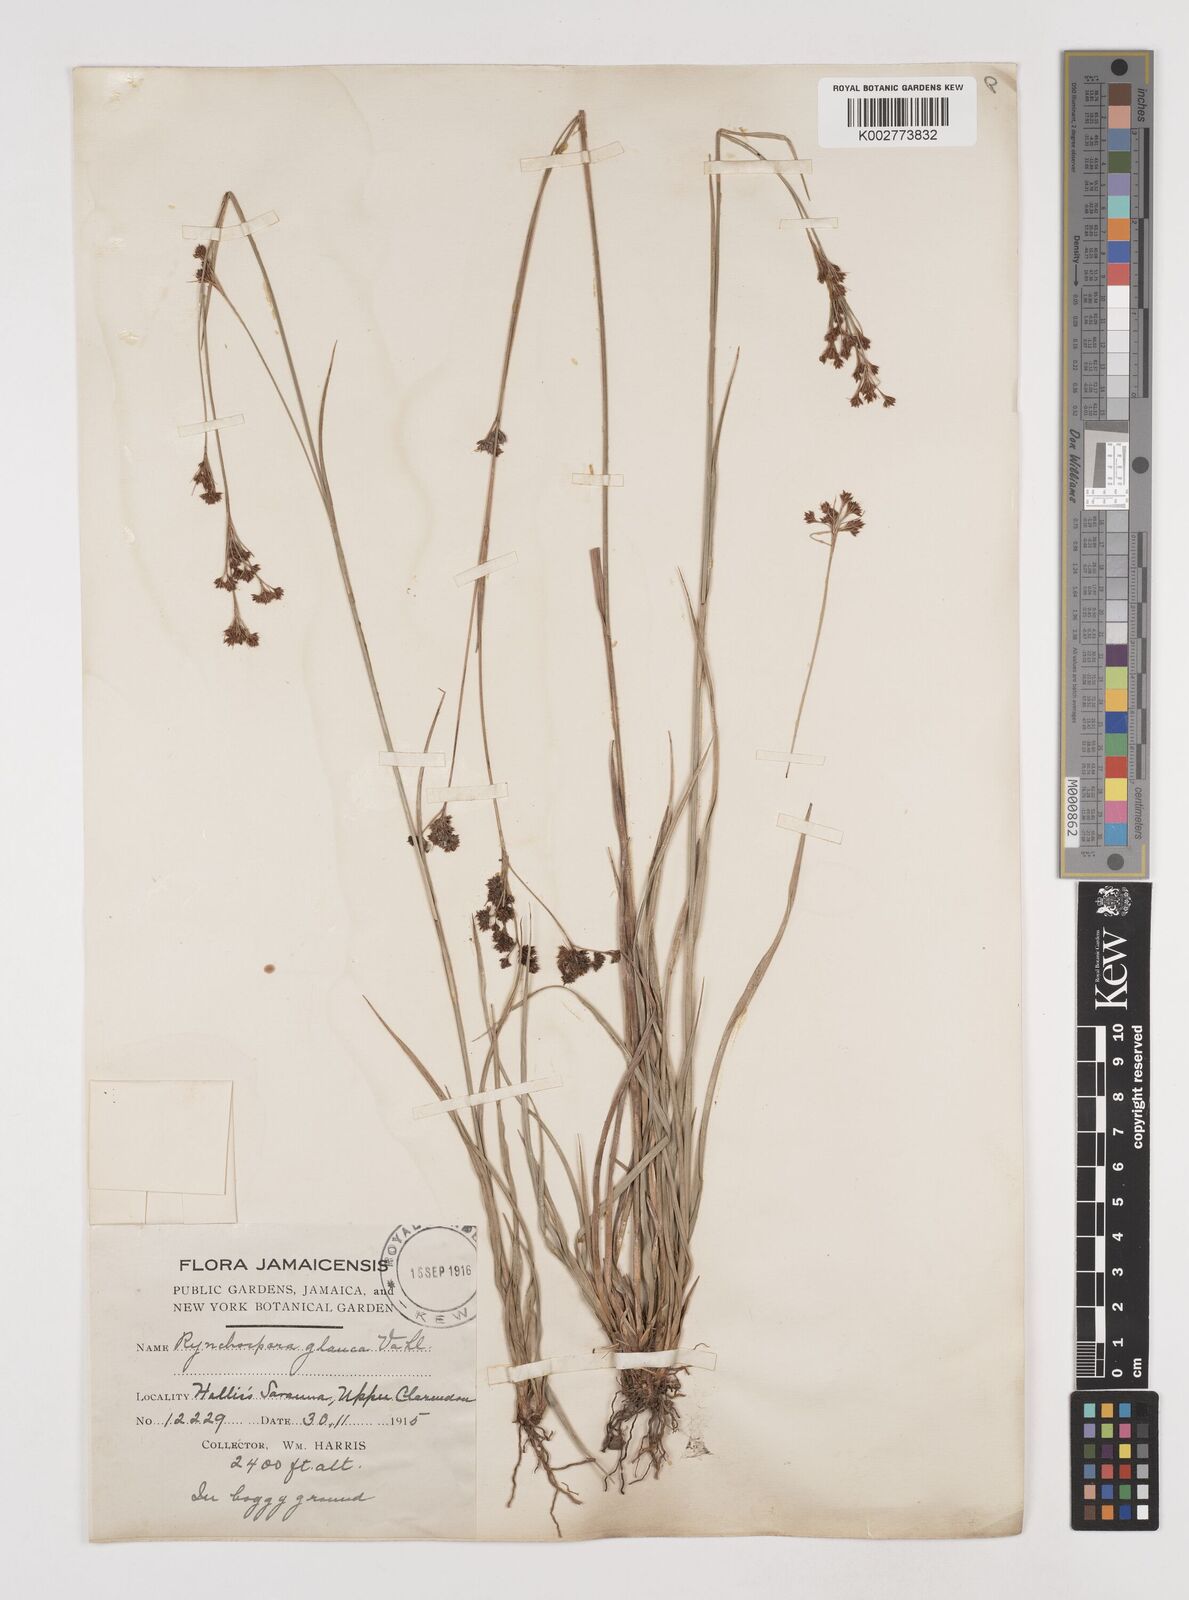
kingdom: Plantae
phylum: Tracheophyta
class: Liliopsida
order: Poales
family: Cyperaceae
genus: Rhynchospora
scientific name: Rhynchospora rugosa
